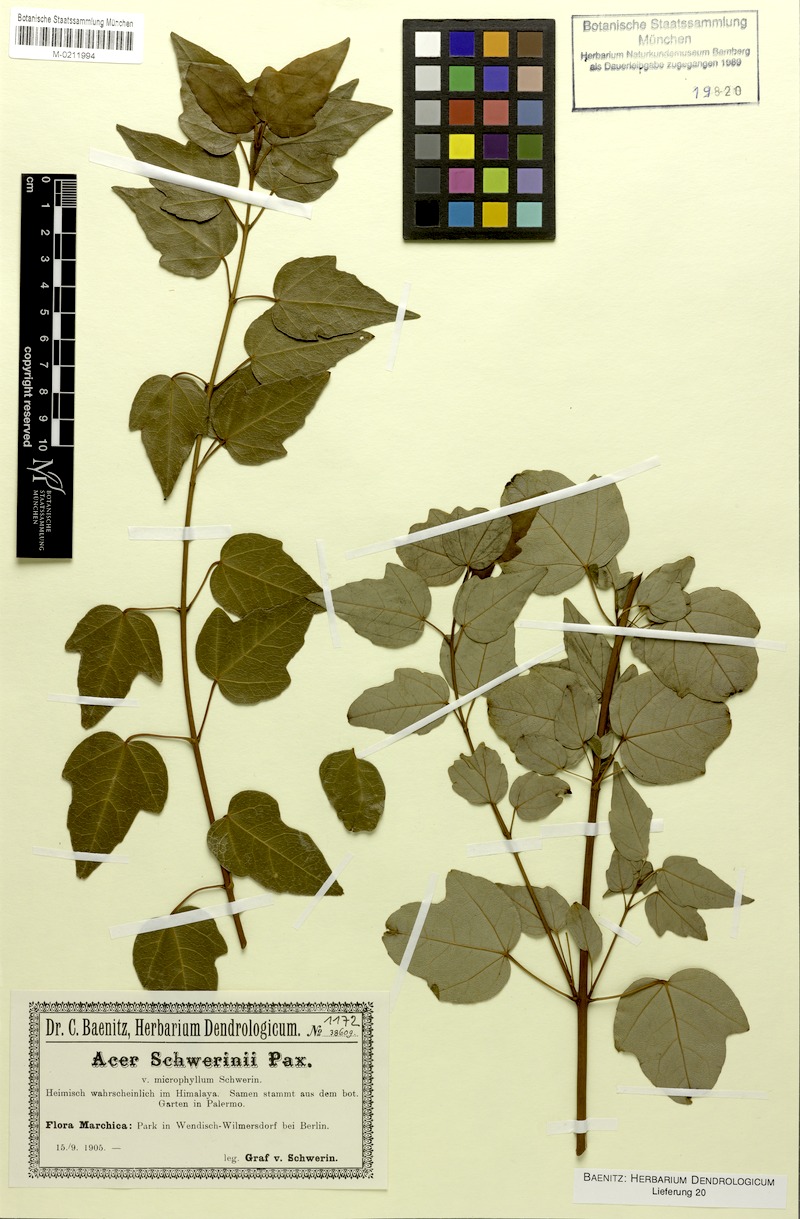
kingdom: Plantae
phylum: Tracheophyta
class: Magnoliopsida
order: Sapindales
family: Sapindaceae
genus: Acer
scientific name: Acer schwerinii
